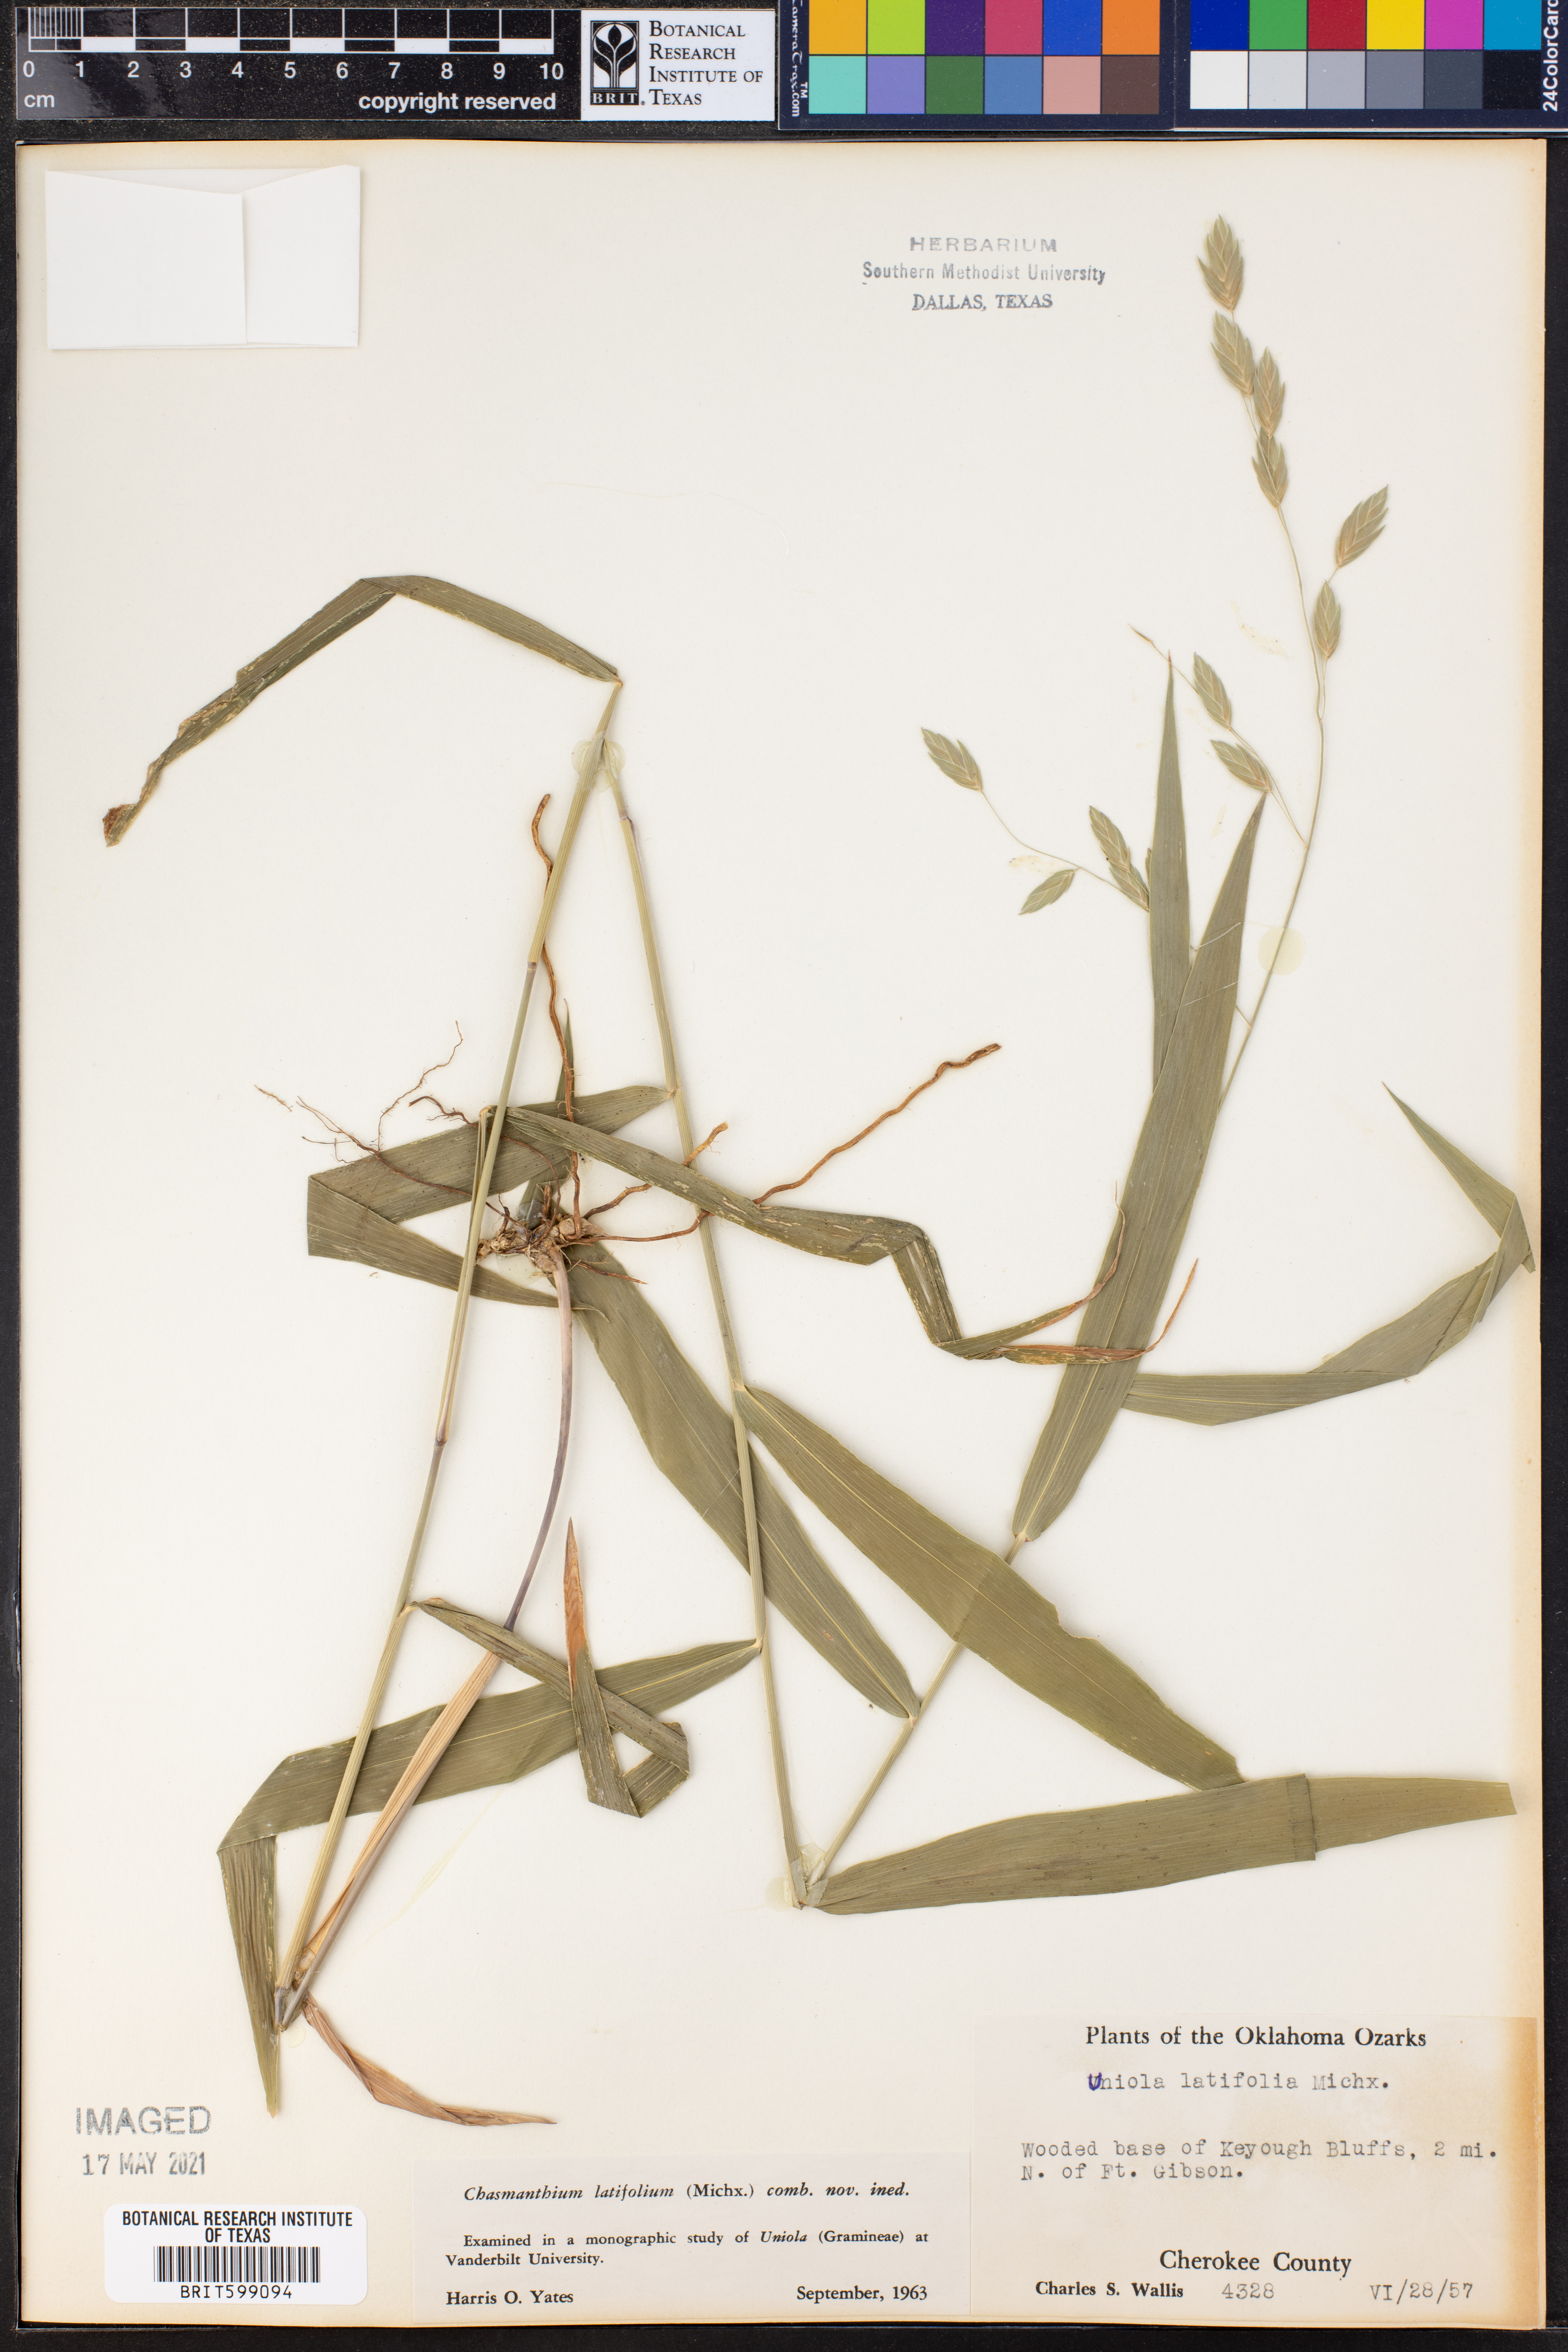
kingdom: Plantae
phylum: Tracheophyta
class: Liliopsida
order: Poales
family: Poaceae
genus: Chasmanthium
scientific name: Chasmanthium latifolium
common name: Broad-leaved chasmanthium
